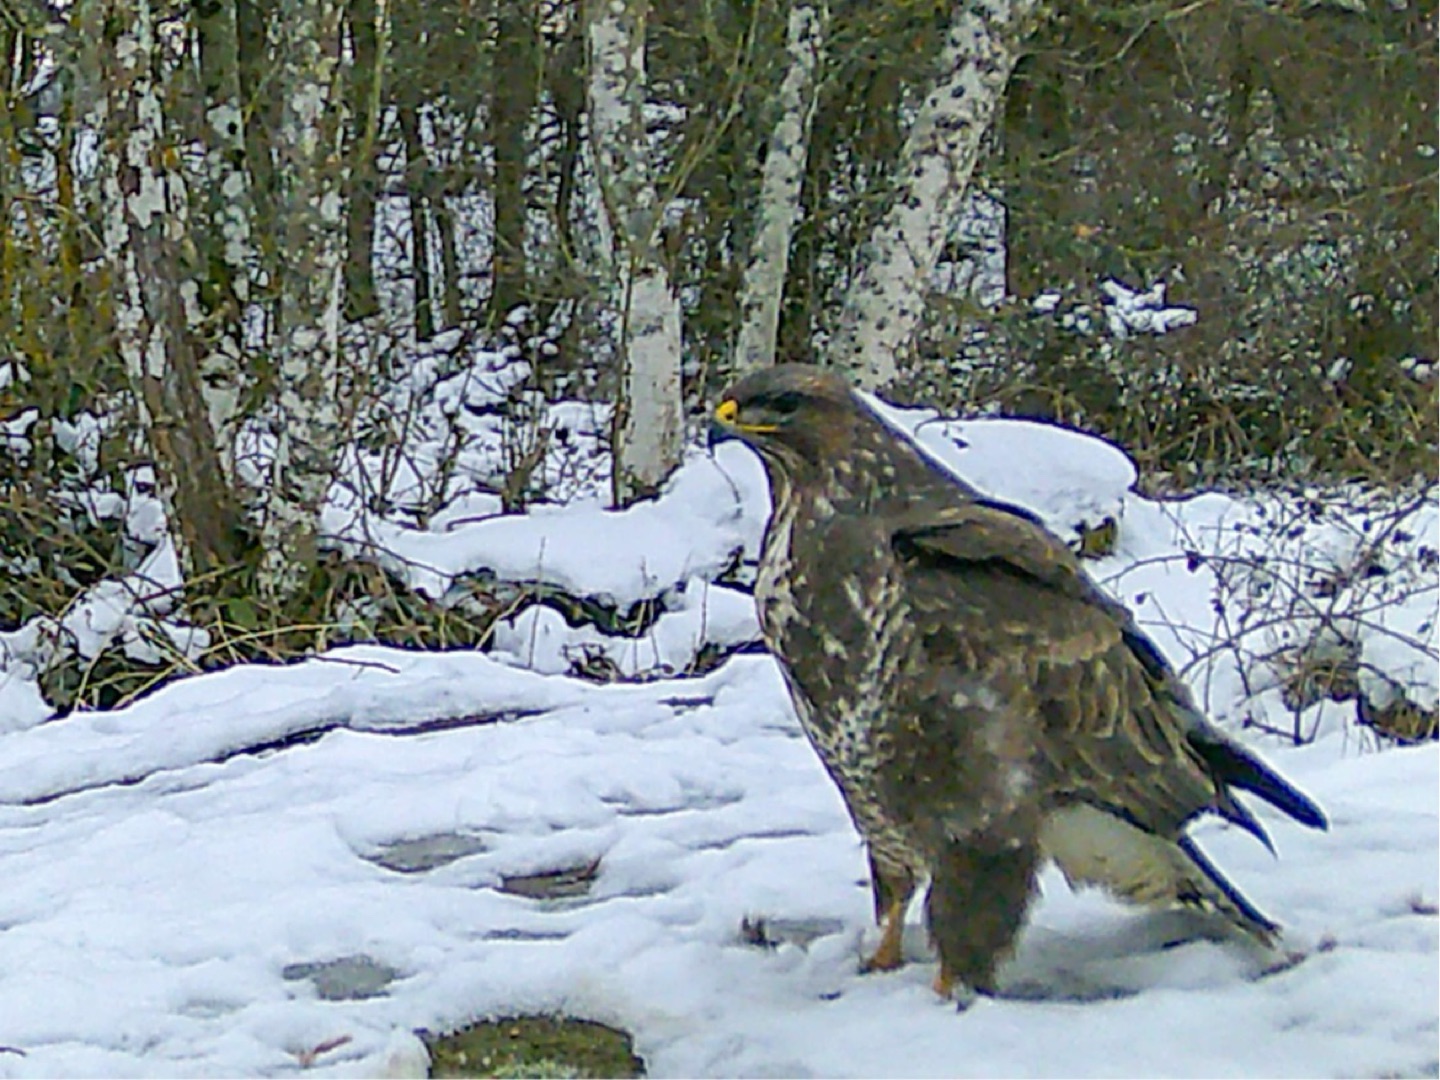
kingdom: Animalia
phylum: Chordata
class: Aves
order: Accipitriformes
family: Accipitridae
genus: Buteo
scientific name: Buteo buteo
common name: Musvåge
